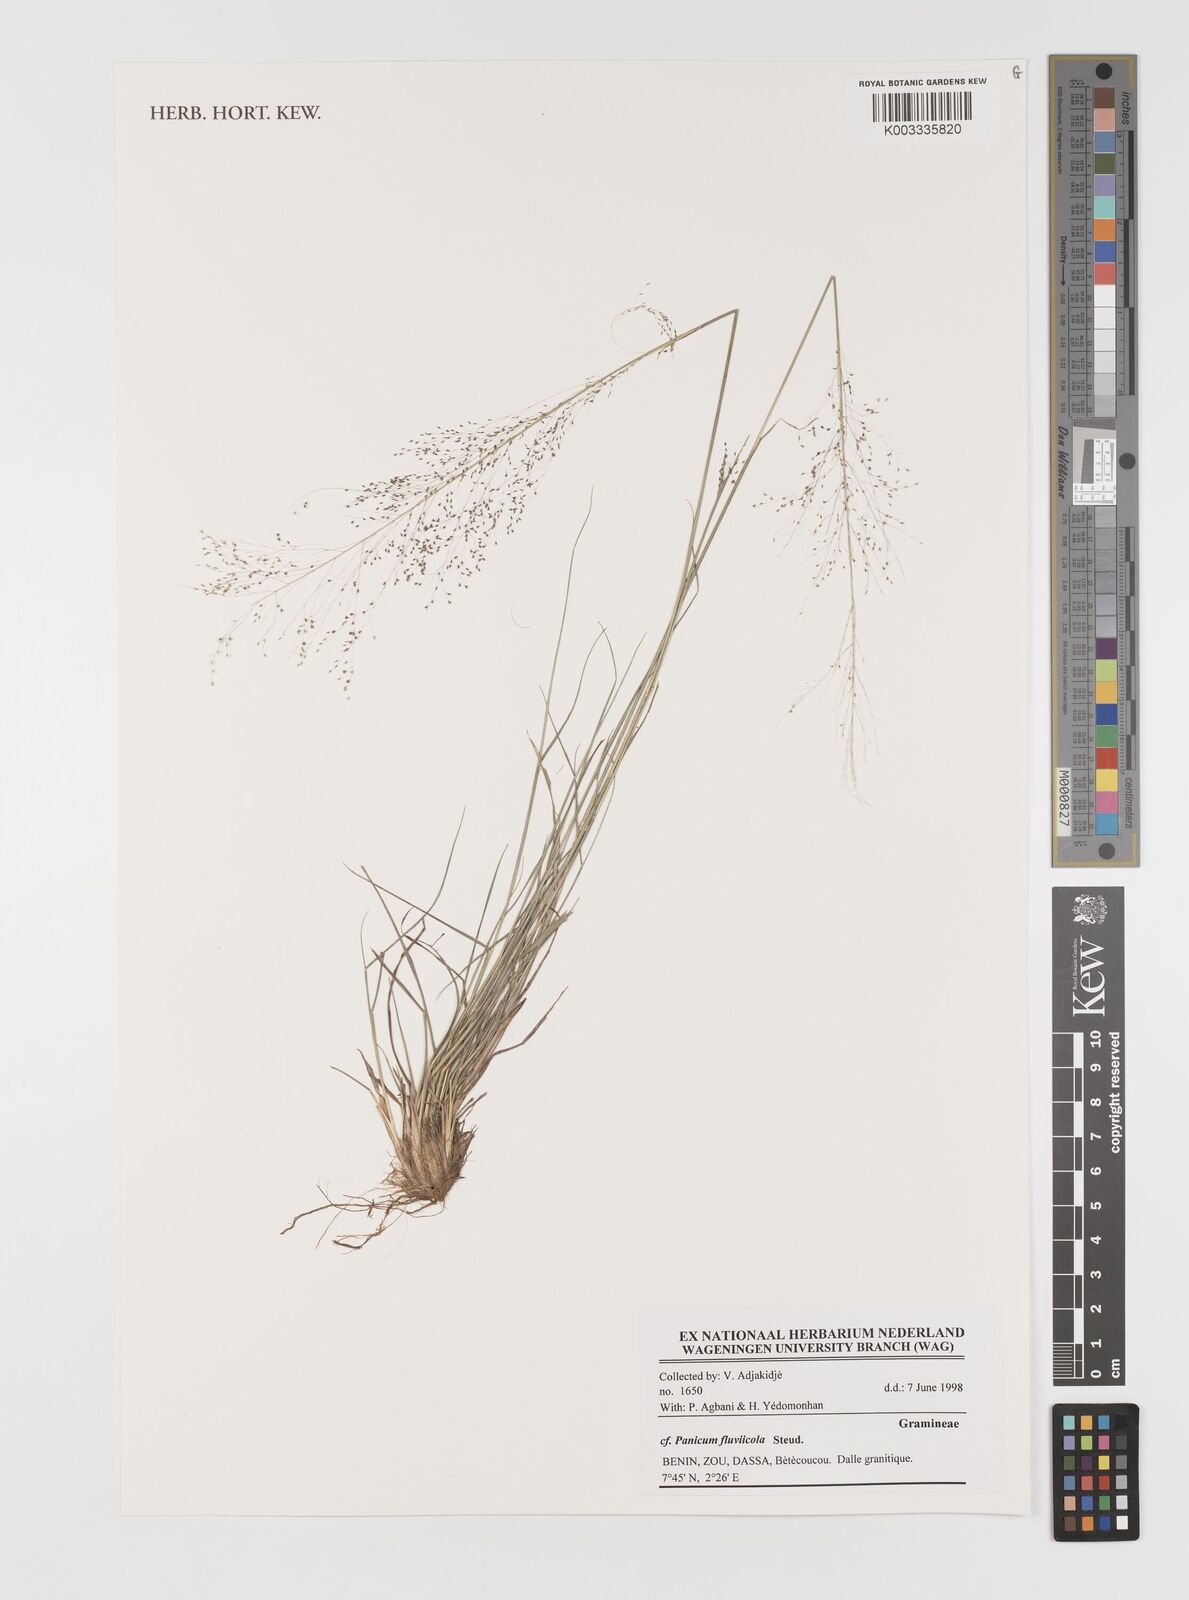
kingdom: Plantae
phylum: Tracheophyta
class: Liliopsida
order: Poales
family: Poaceae
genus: Panicum
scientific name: Panicum fluviicola
